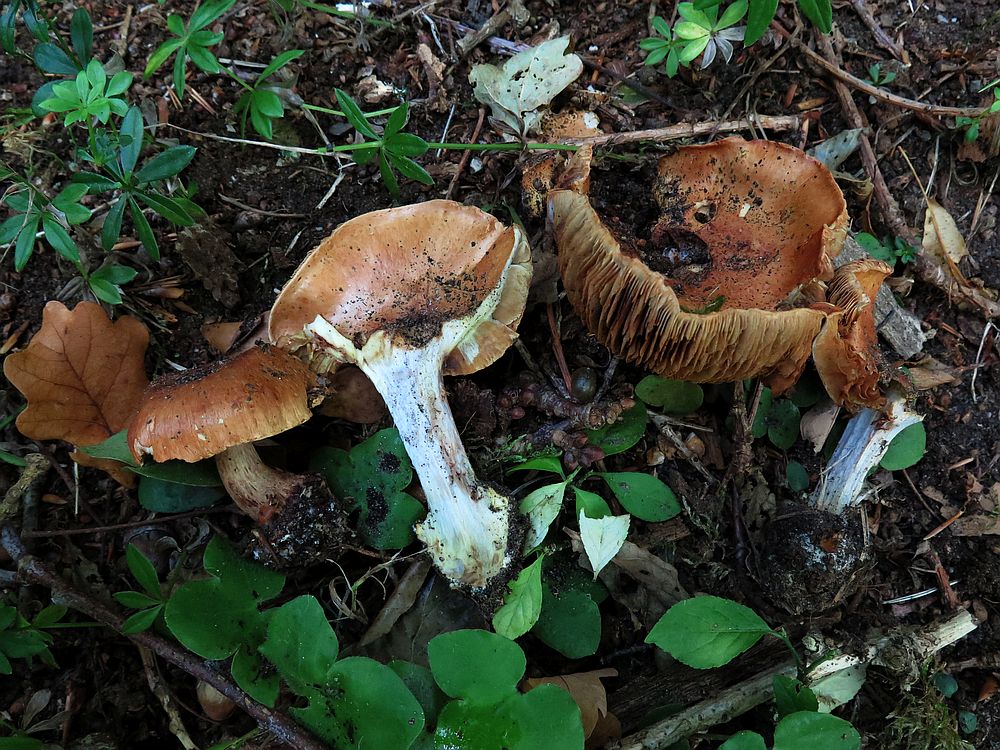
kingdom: Fungi
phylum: Basidiomycota
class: Agaricomycetes
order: Agaricales
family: Cortinariaceae
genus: Cortinarius
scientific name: Cortinarius bergeronii
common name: prægtig slørhat
